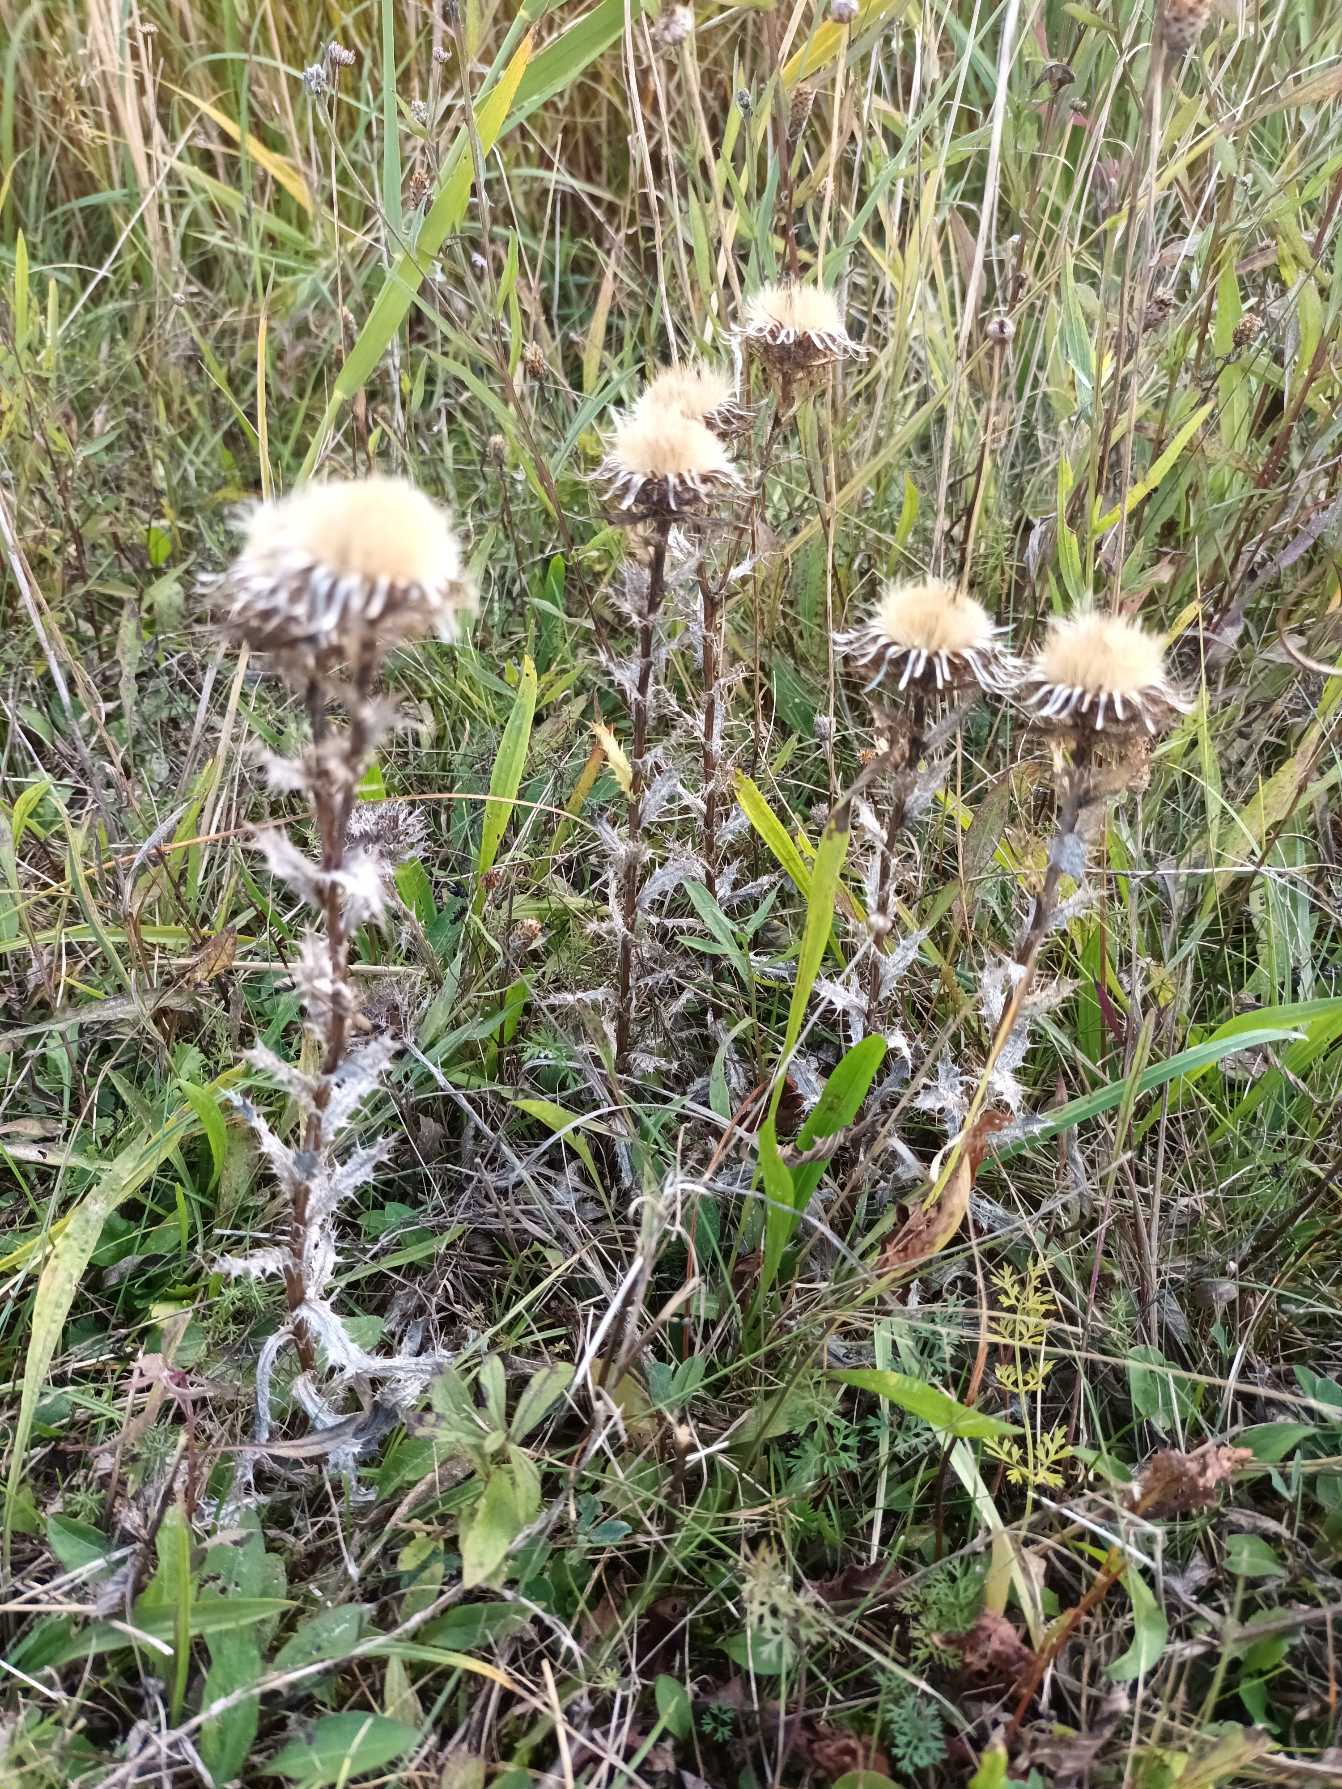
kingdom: Plantae
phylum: Tracheophyta
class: Magnoliopsida
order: Asterales
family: Asteraceae
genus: Carlina
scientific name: Carlina vulgaris
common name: Bakketidsel
